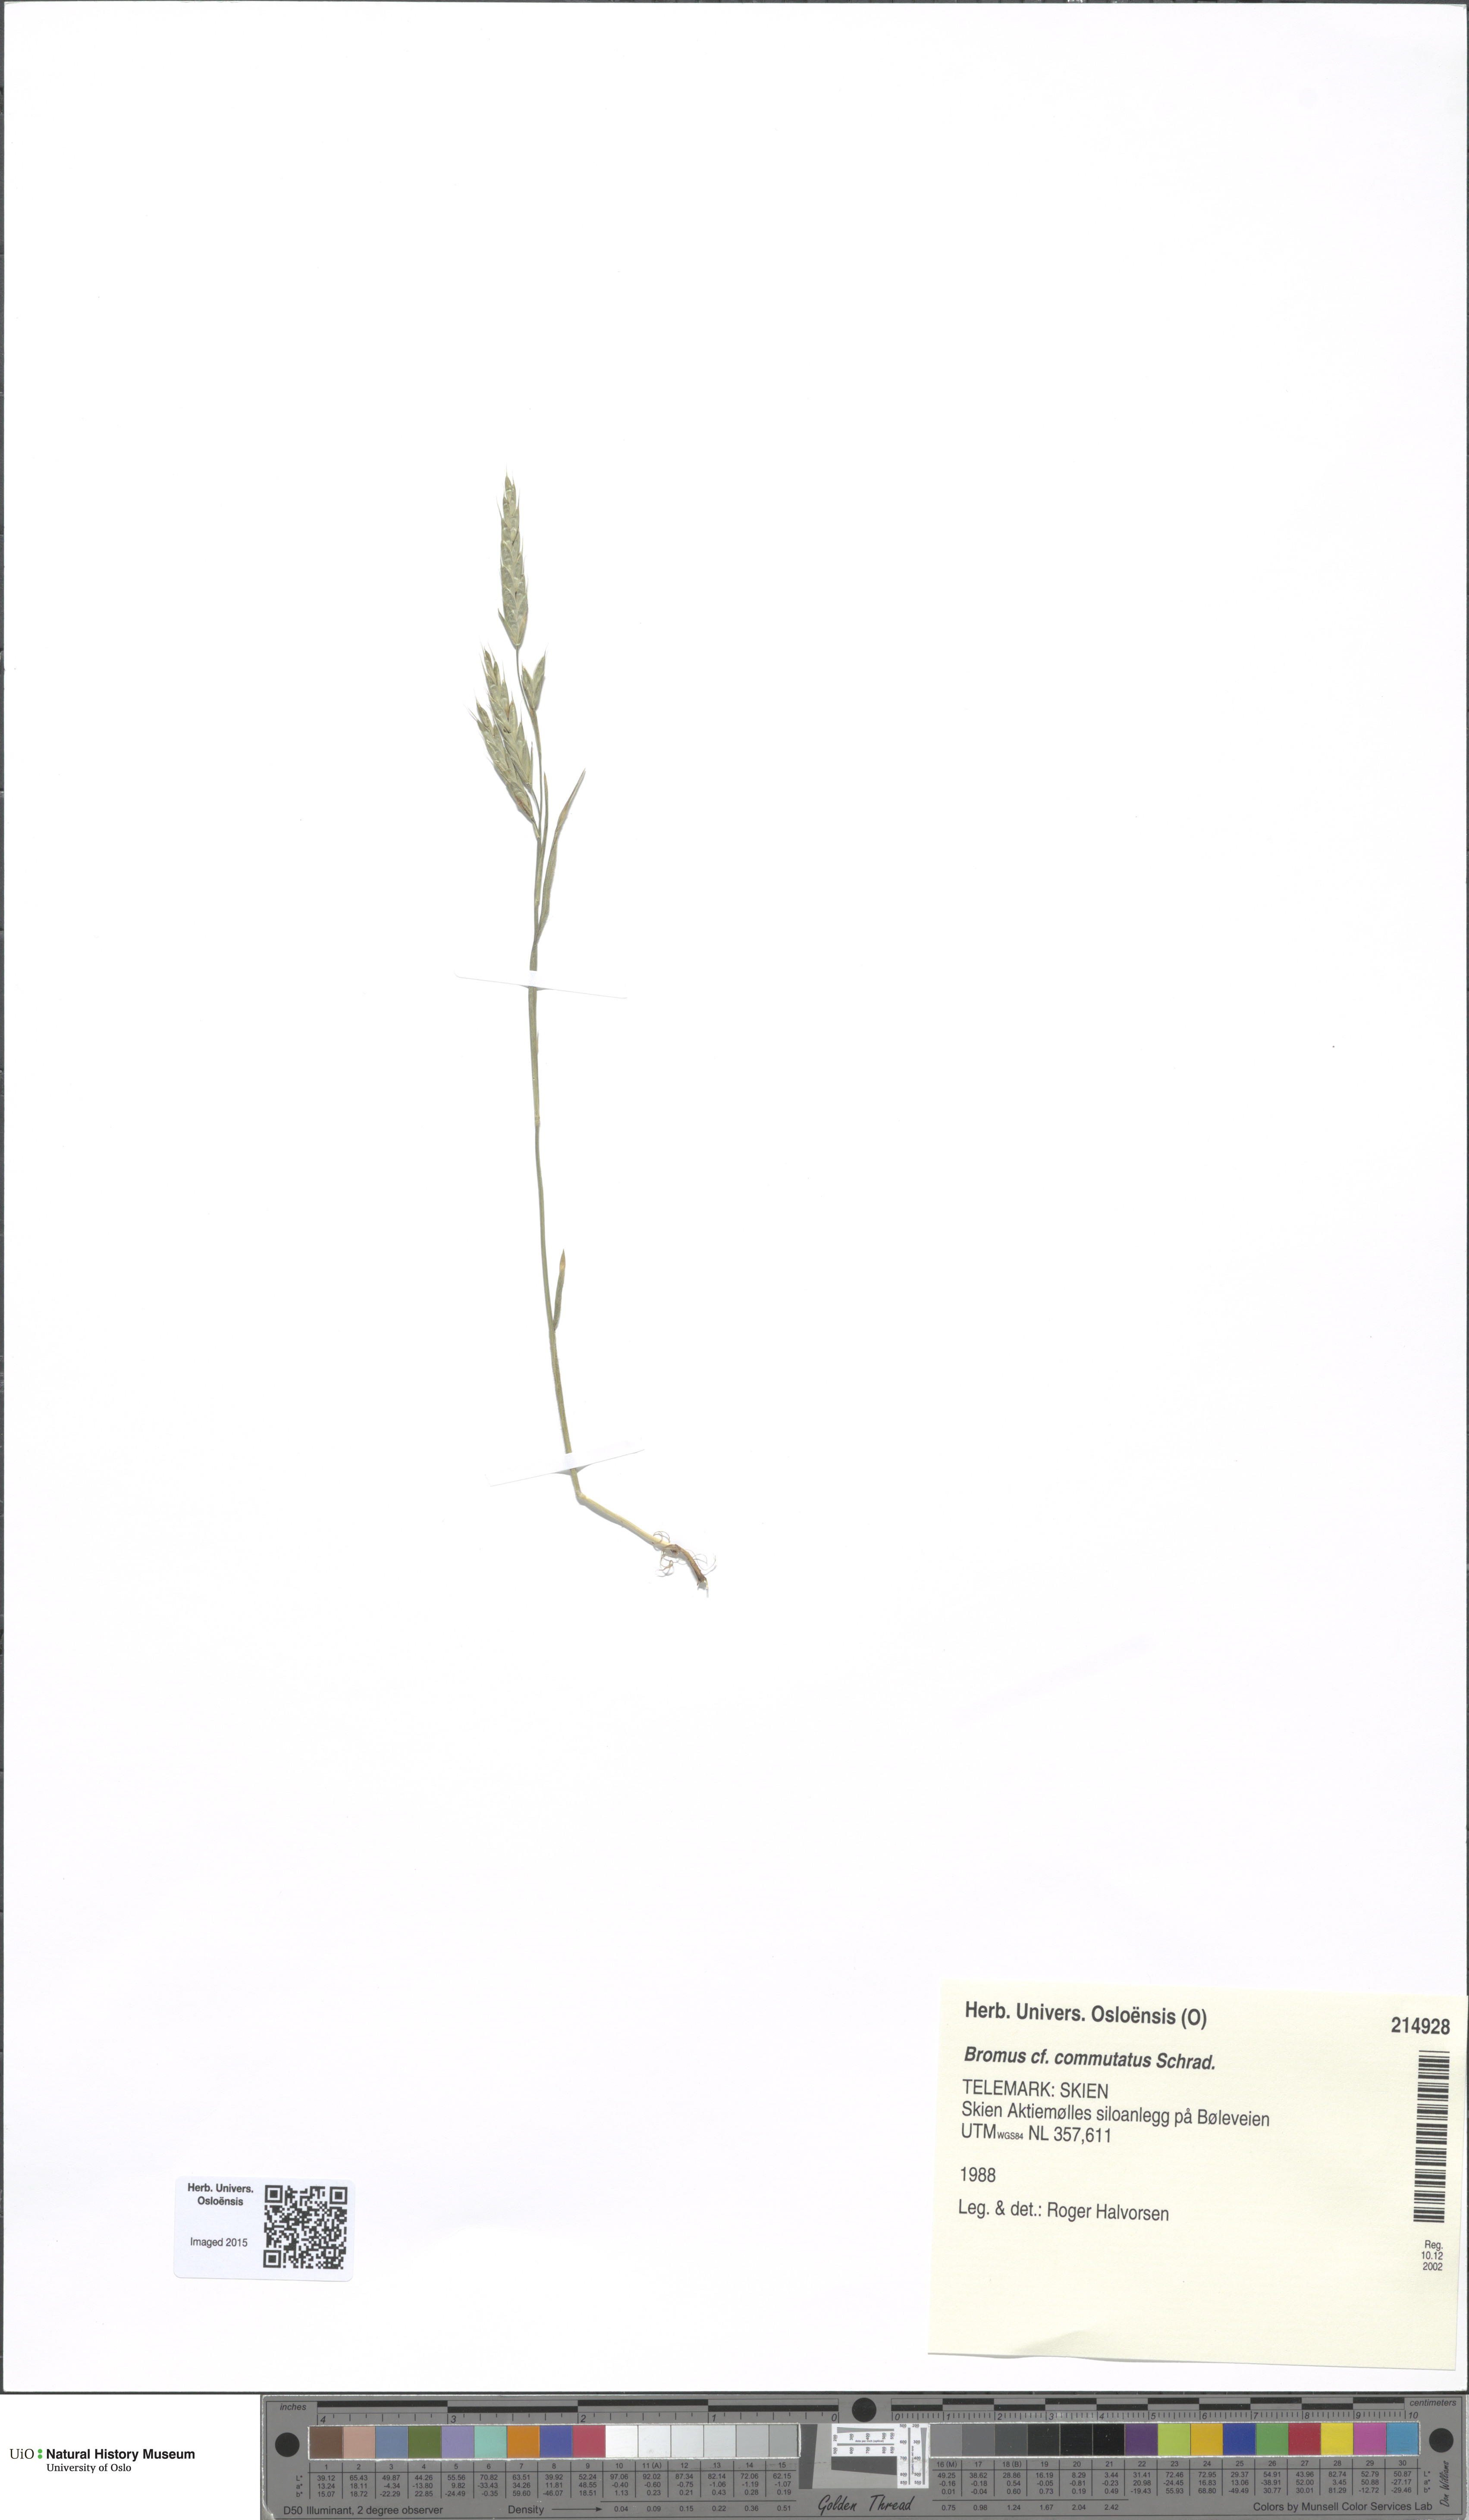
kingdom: Plantae
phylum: Tracheophyta
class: Liliopsida
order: Poales
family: Poaceae
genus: Bromus
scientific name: Bromus commutatus
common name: Meadow brome
